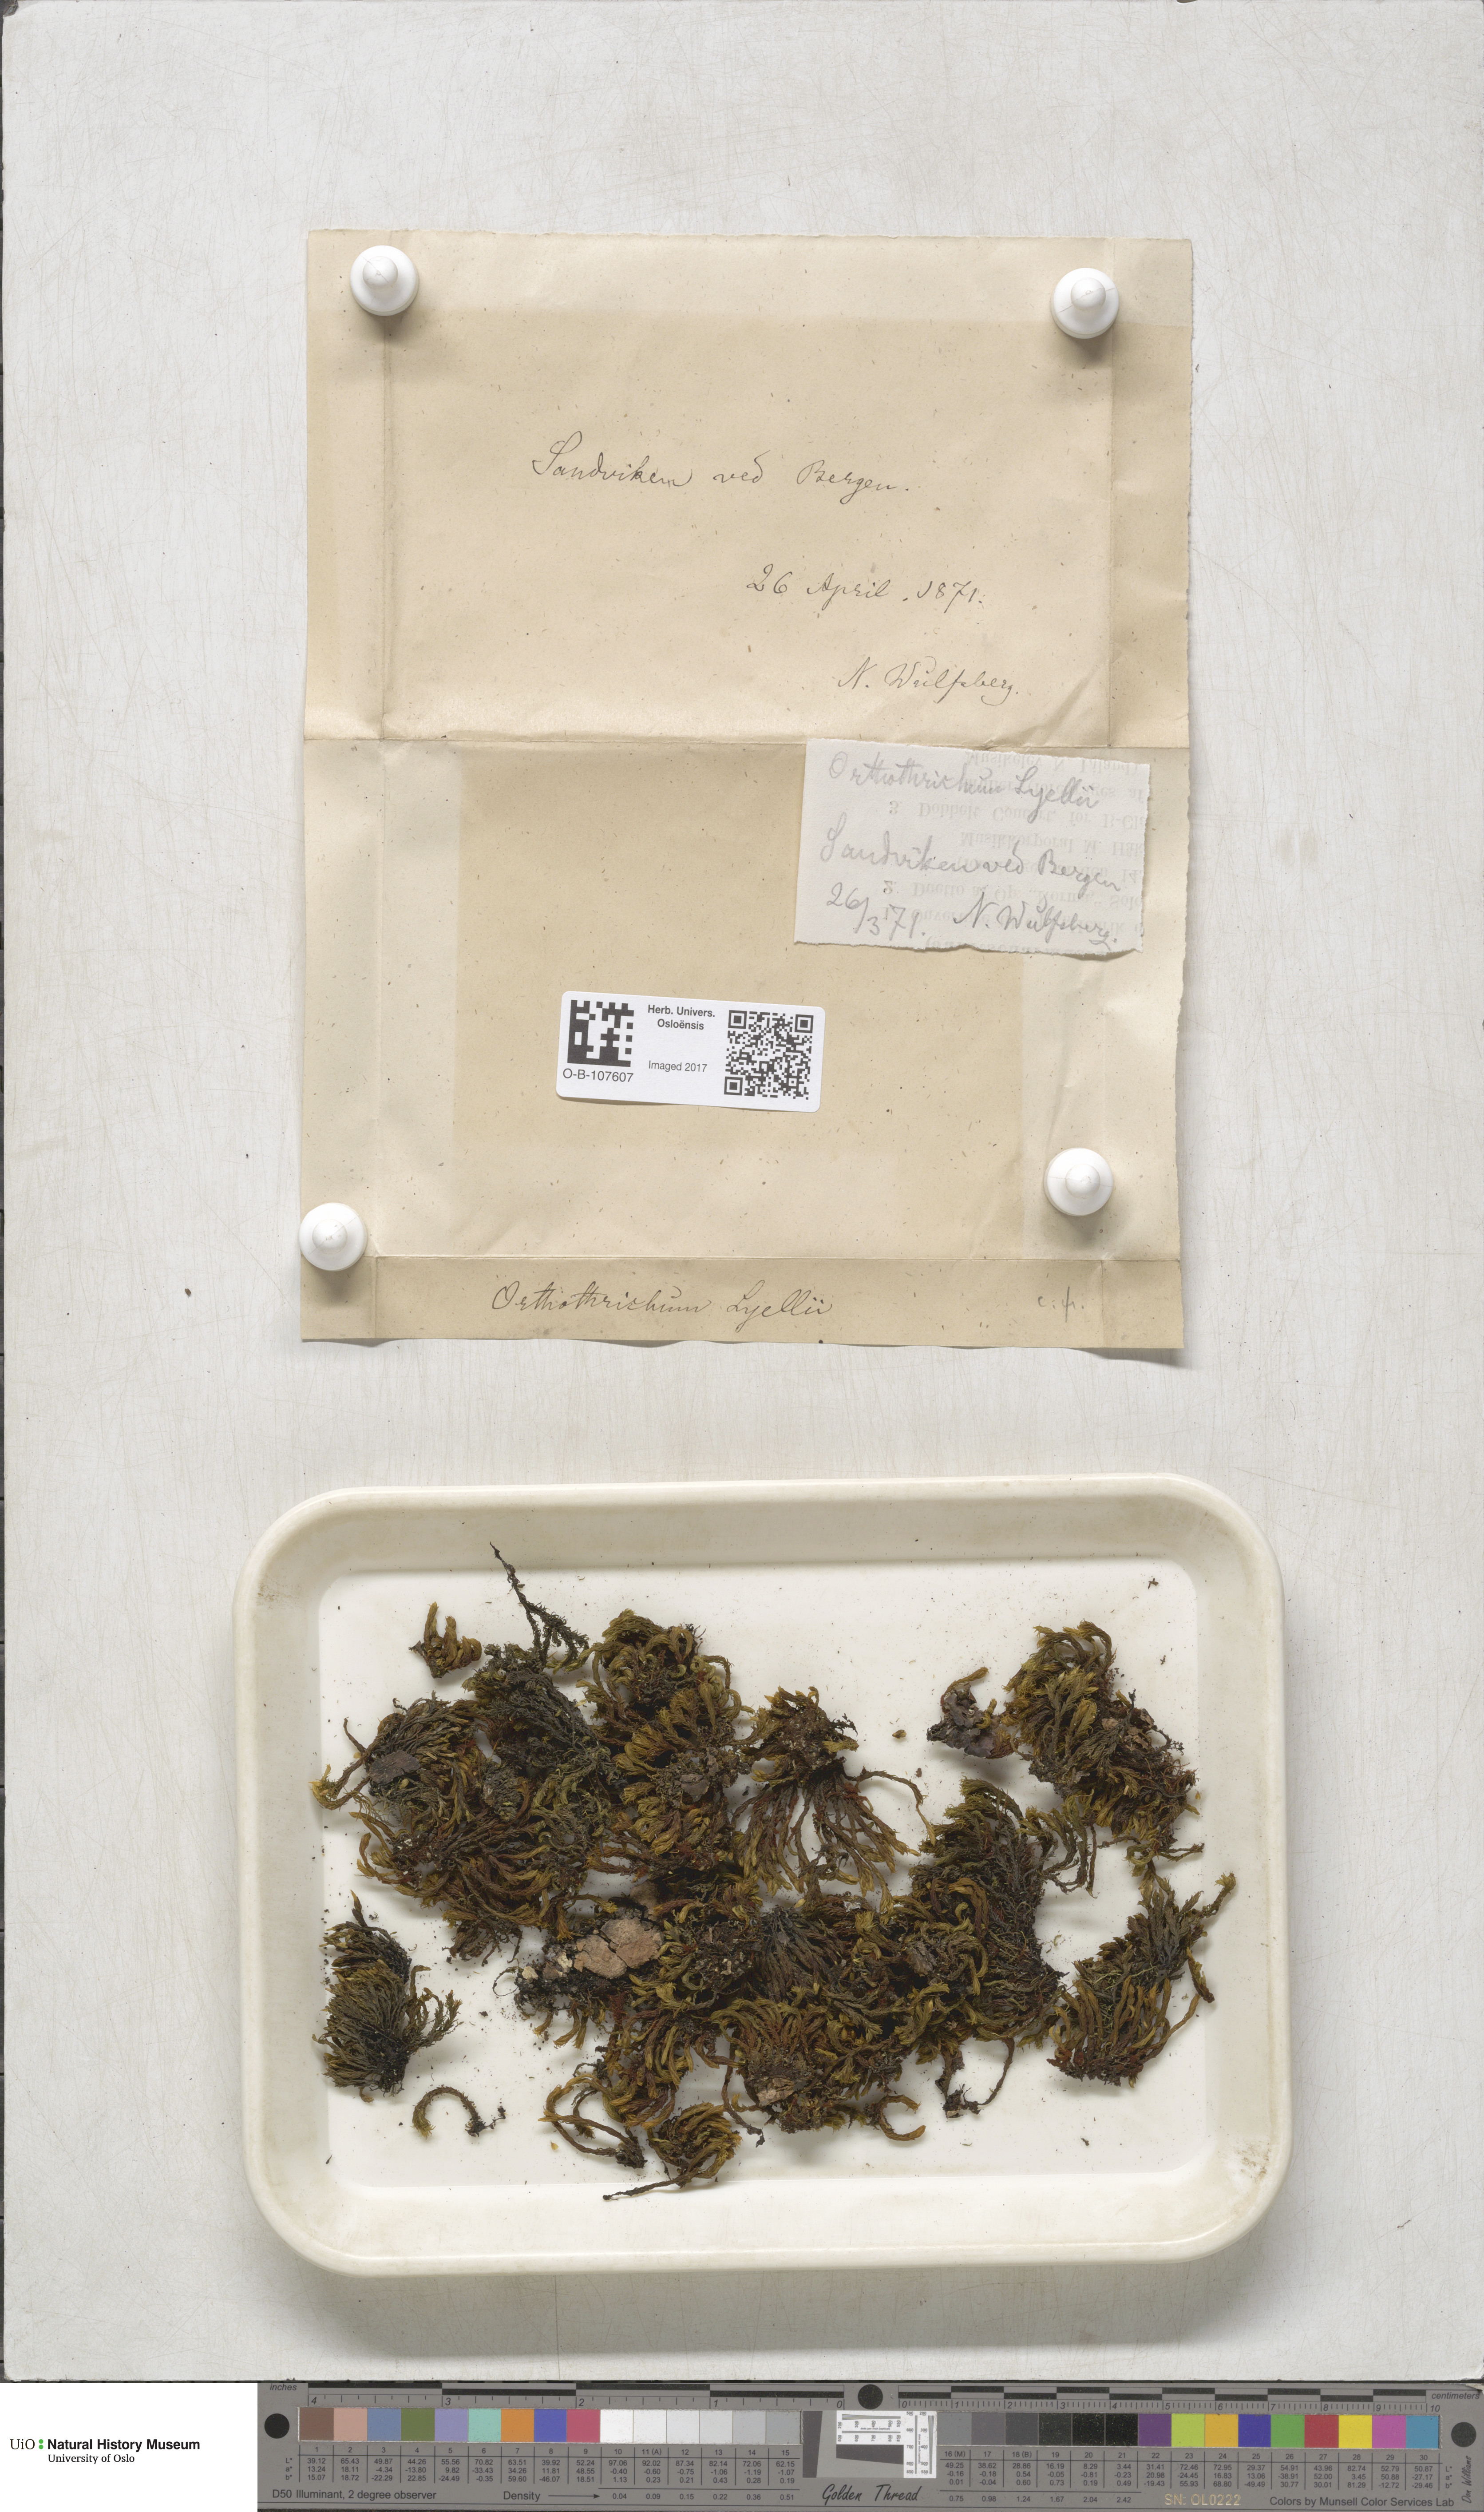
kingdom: Plantae
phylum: Bryophyta
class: Bryopsida
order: Orthotrichales
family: Orthotrichaceae
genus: Pulvigera
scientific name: Pulvigera lyellii
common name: Lyell's bristle-moss
